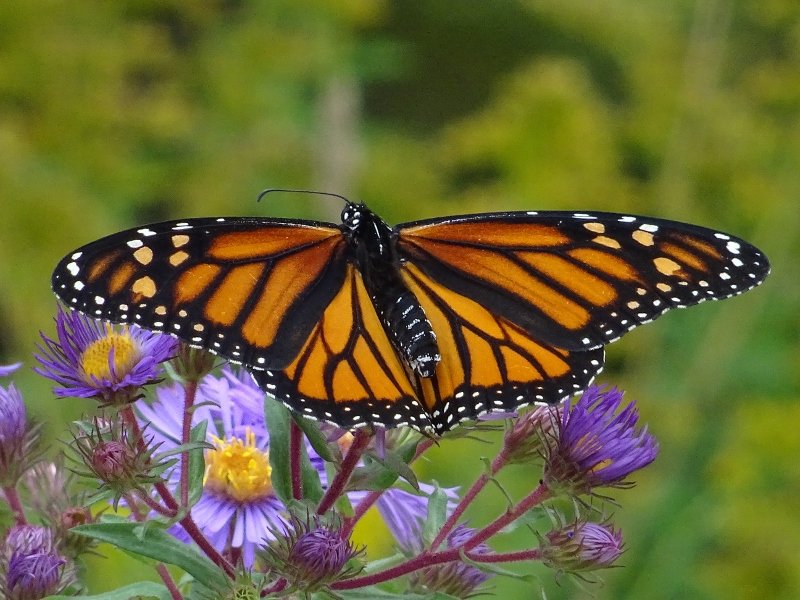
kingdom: Animalia
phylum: Arthropoda
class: Insecta
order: Lepidoptera
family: Nymphalidae
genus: Danaus
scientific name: Danaus plexippus
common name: Monarch
